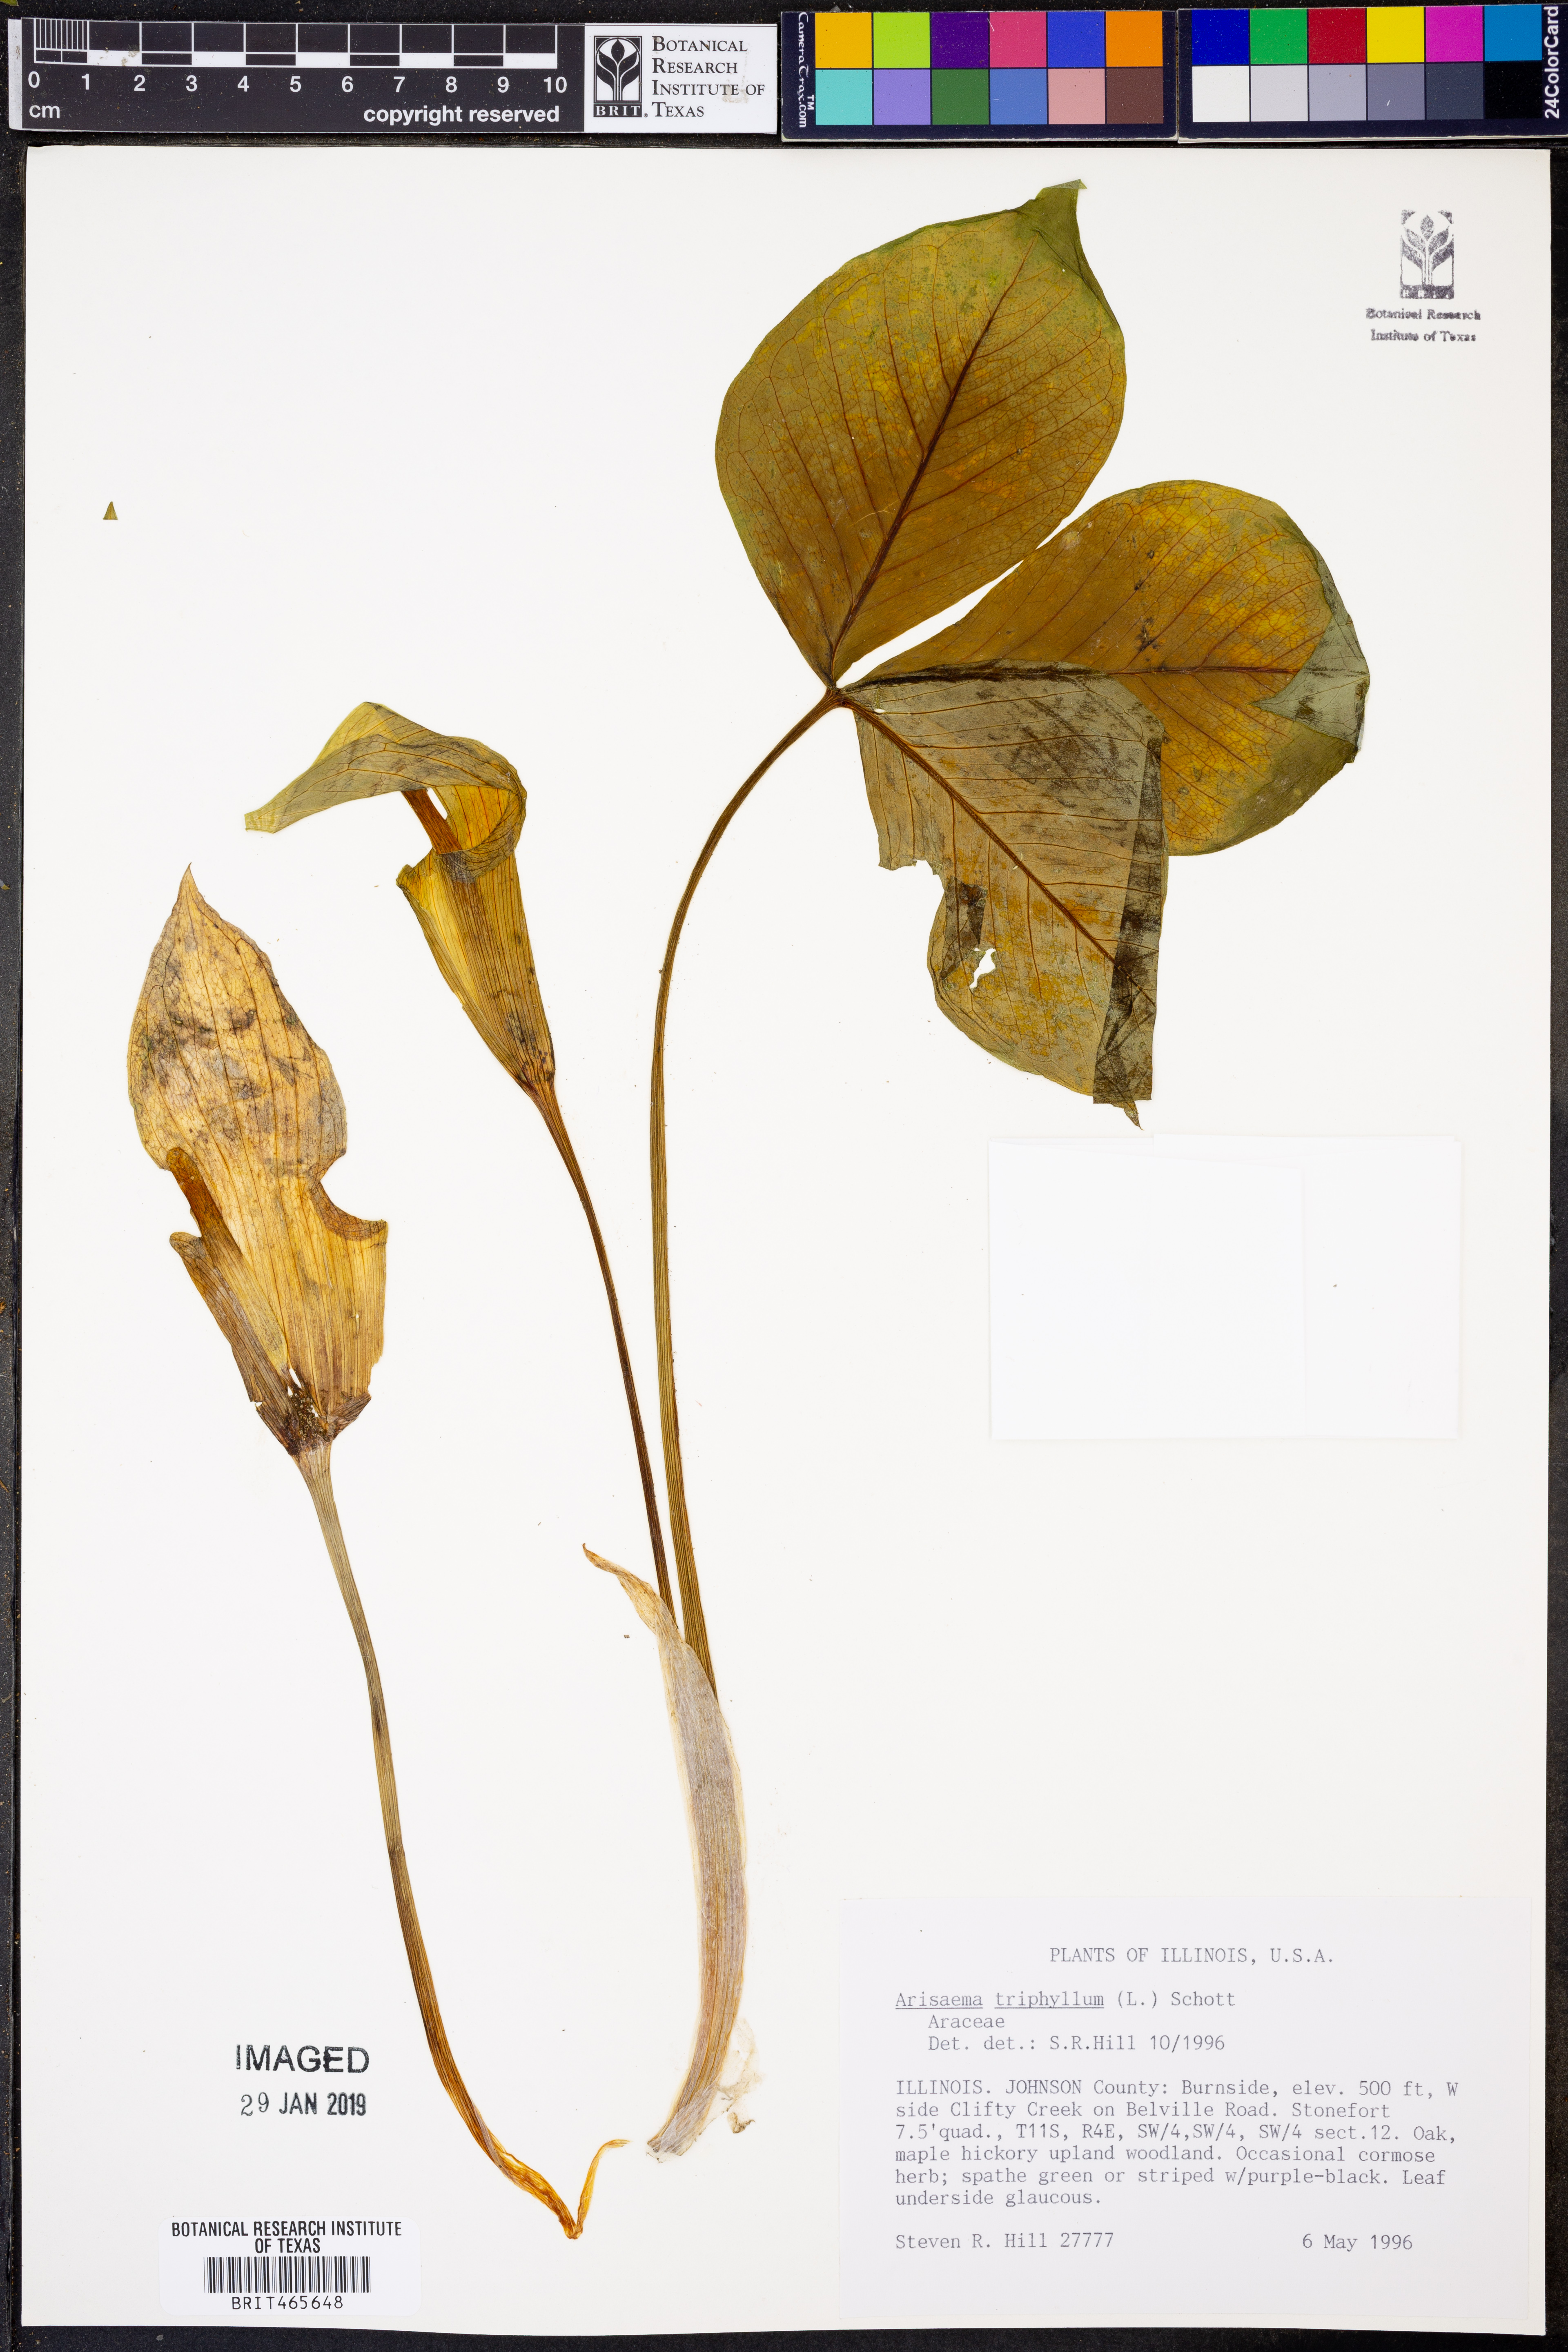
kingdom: Plantae
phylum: Tracheophyta
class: Liliopsida
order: Alismatales
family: Araceae
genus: Arisaema
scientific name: Arisaema triphyllum
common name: Jack-in-the-pulpit
